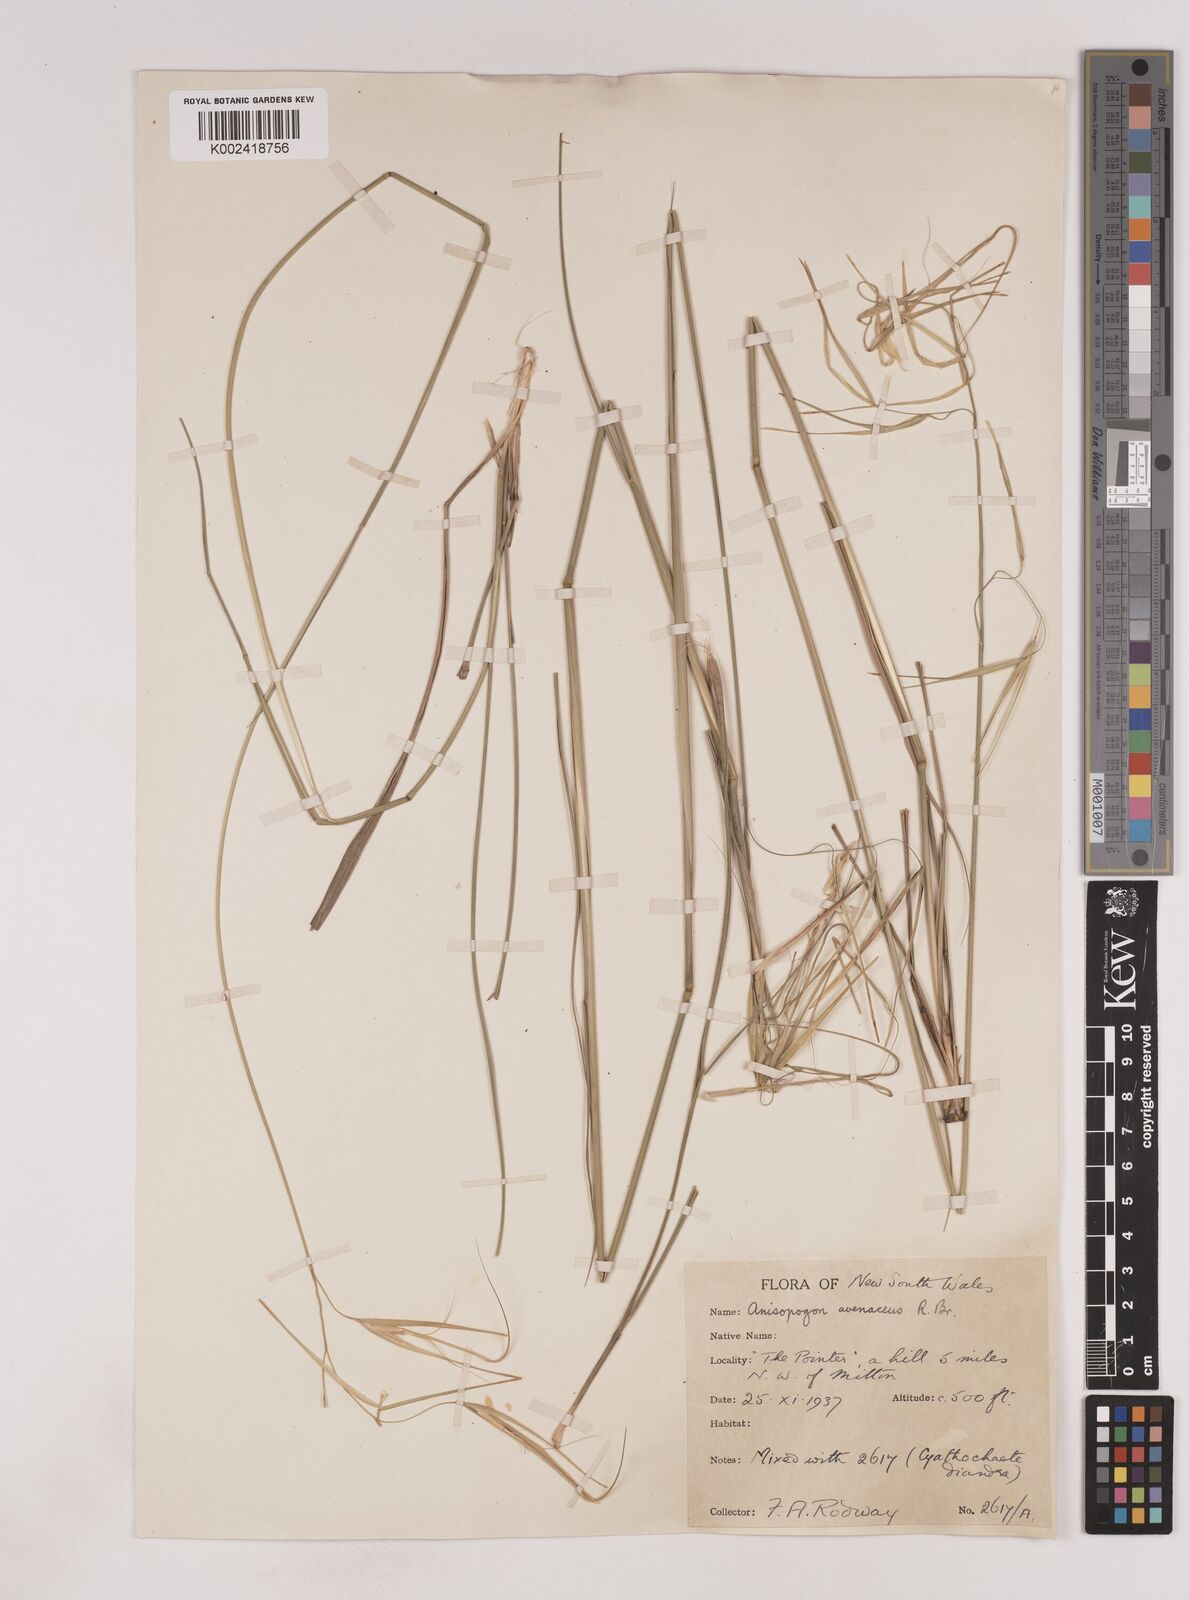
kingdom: Plantae
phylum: Tracheophyta
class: Liliopsida
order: Poales
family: Poaceae
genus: Anisopogon
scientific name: Anisopogon avenaceus
